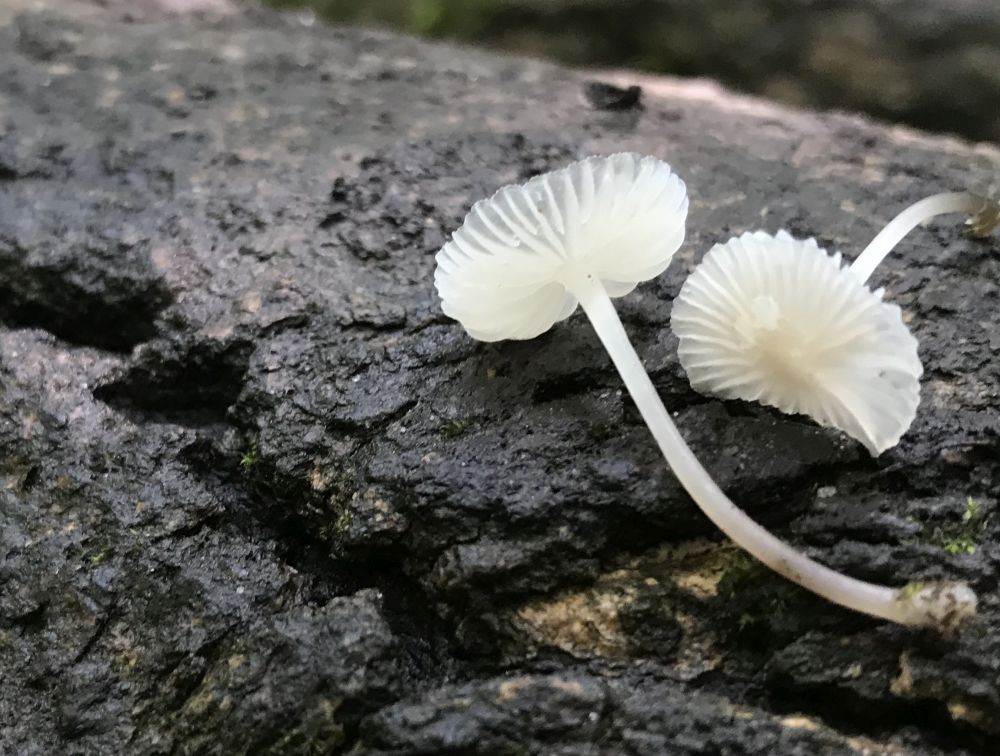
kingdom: Fungi
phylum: Basidiomycota
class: Agaricomycetes
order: Agaricales
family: Mycenaceae
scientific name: Mycenaceae
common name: huesvampfamilien
